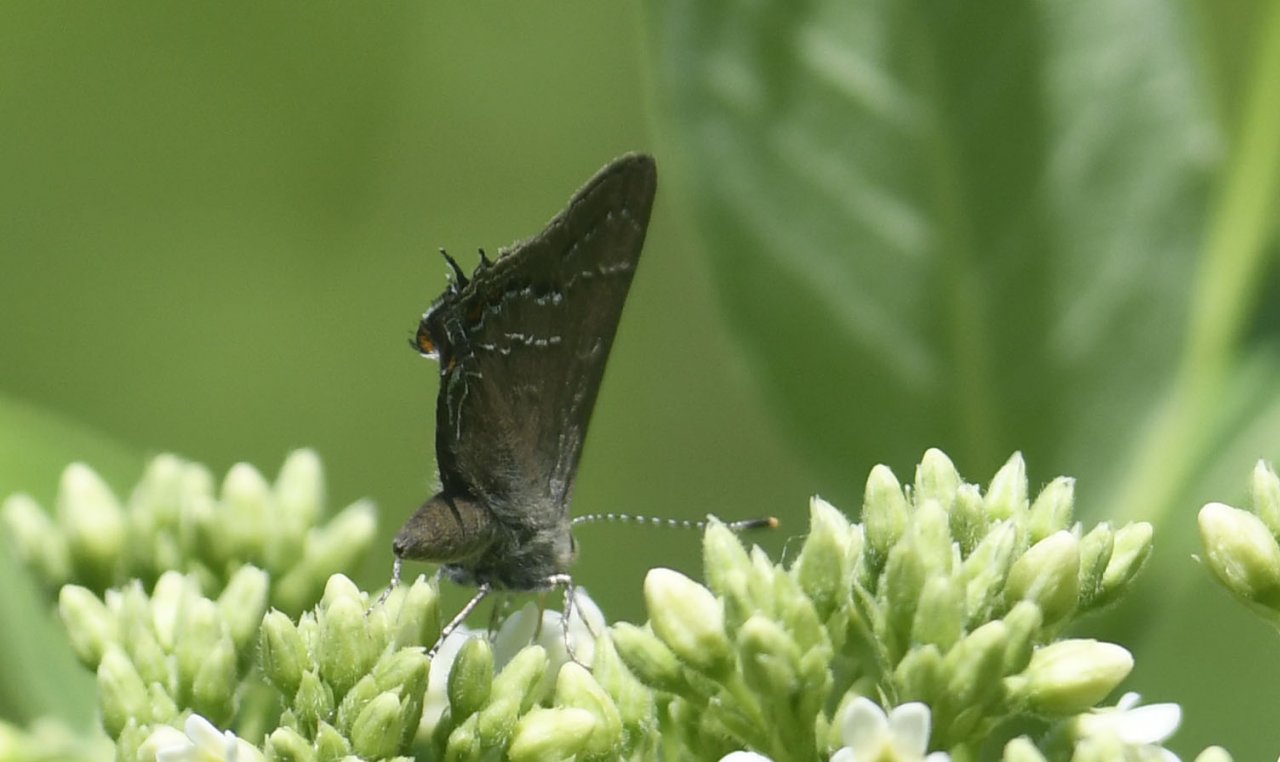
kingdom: Animalia
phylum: Arthropoda
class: Insecta
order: Lepidoptera
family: Lycaenidae
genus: Fixsenia
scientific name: Fixsenia favonius
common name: Oak Hairstreak
